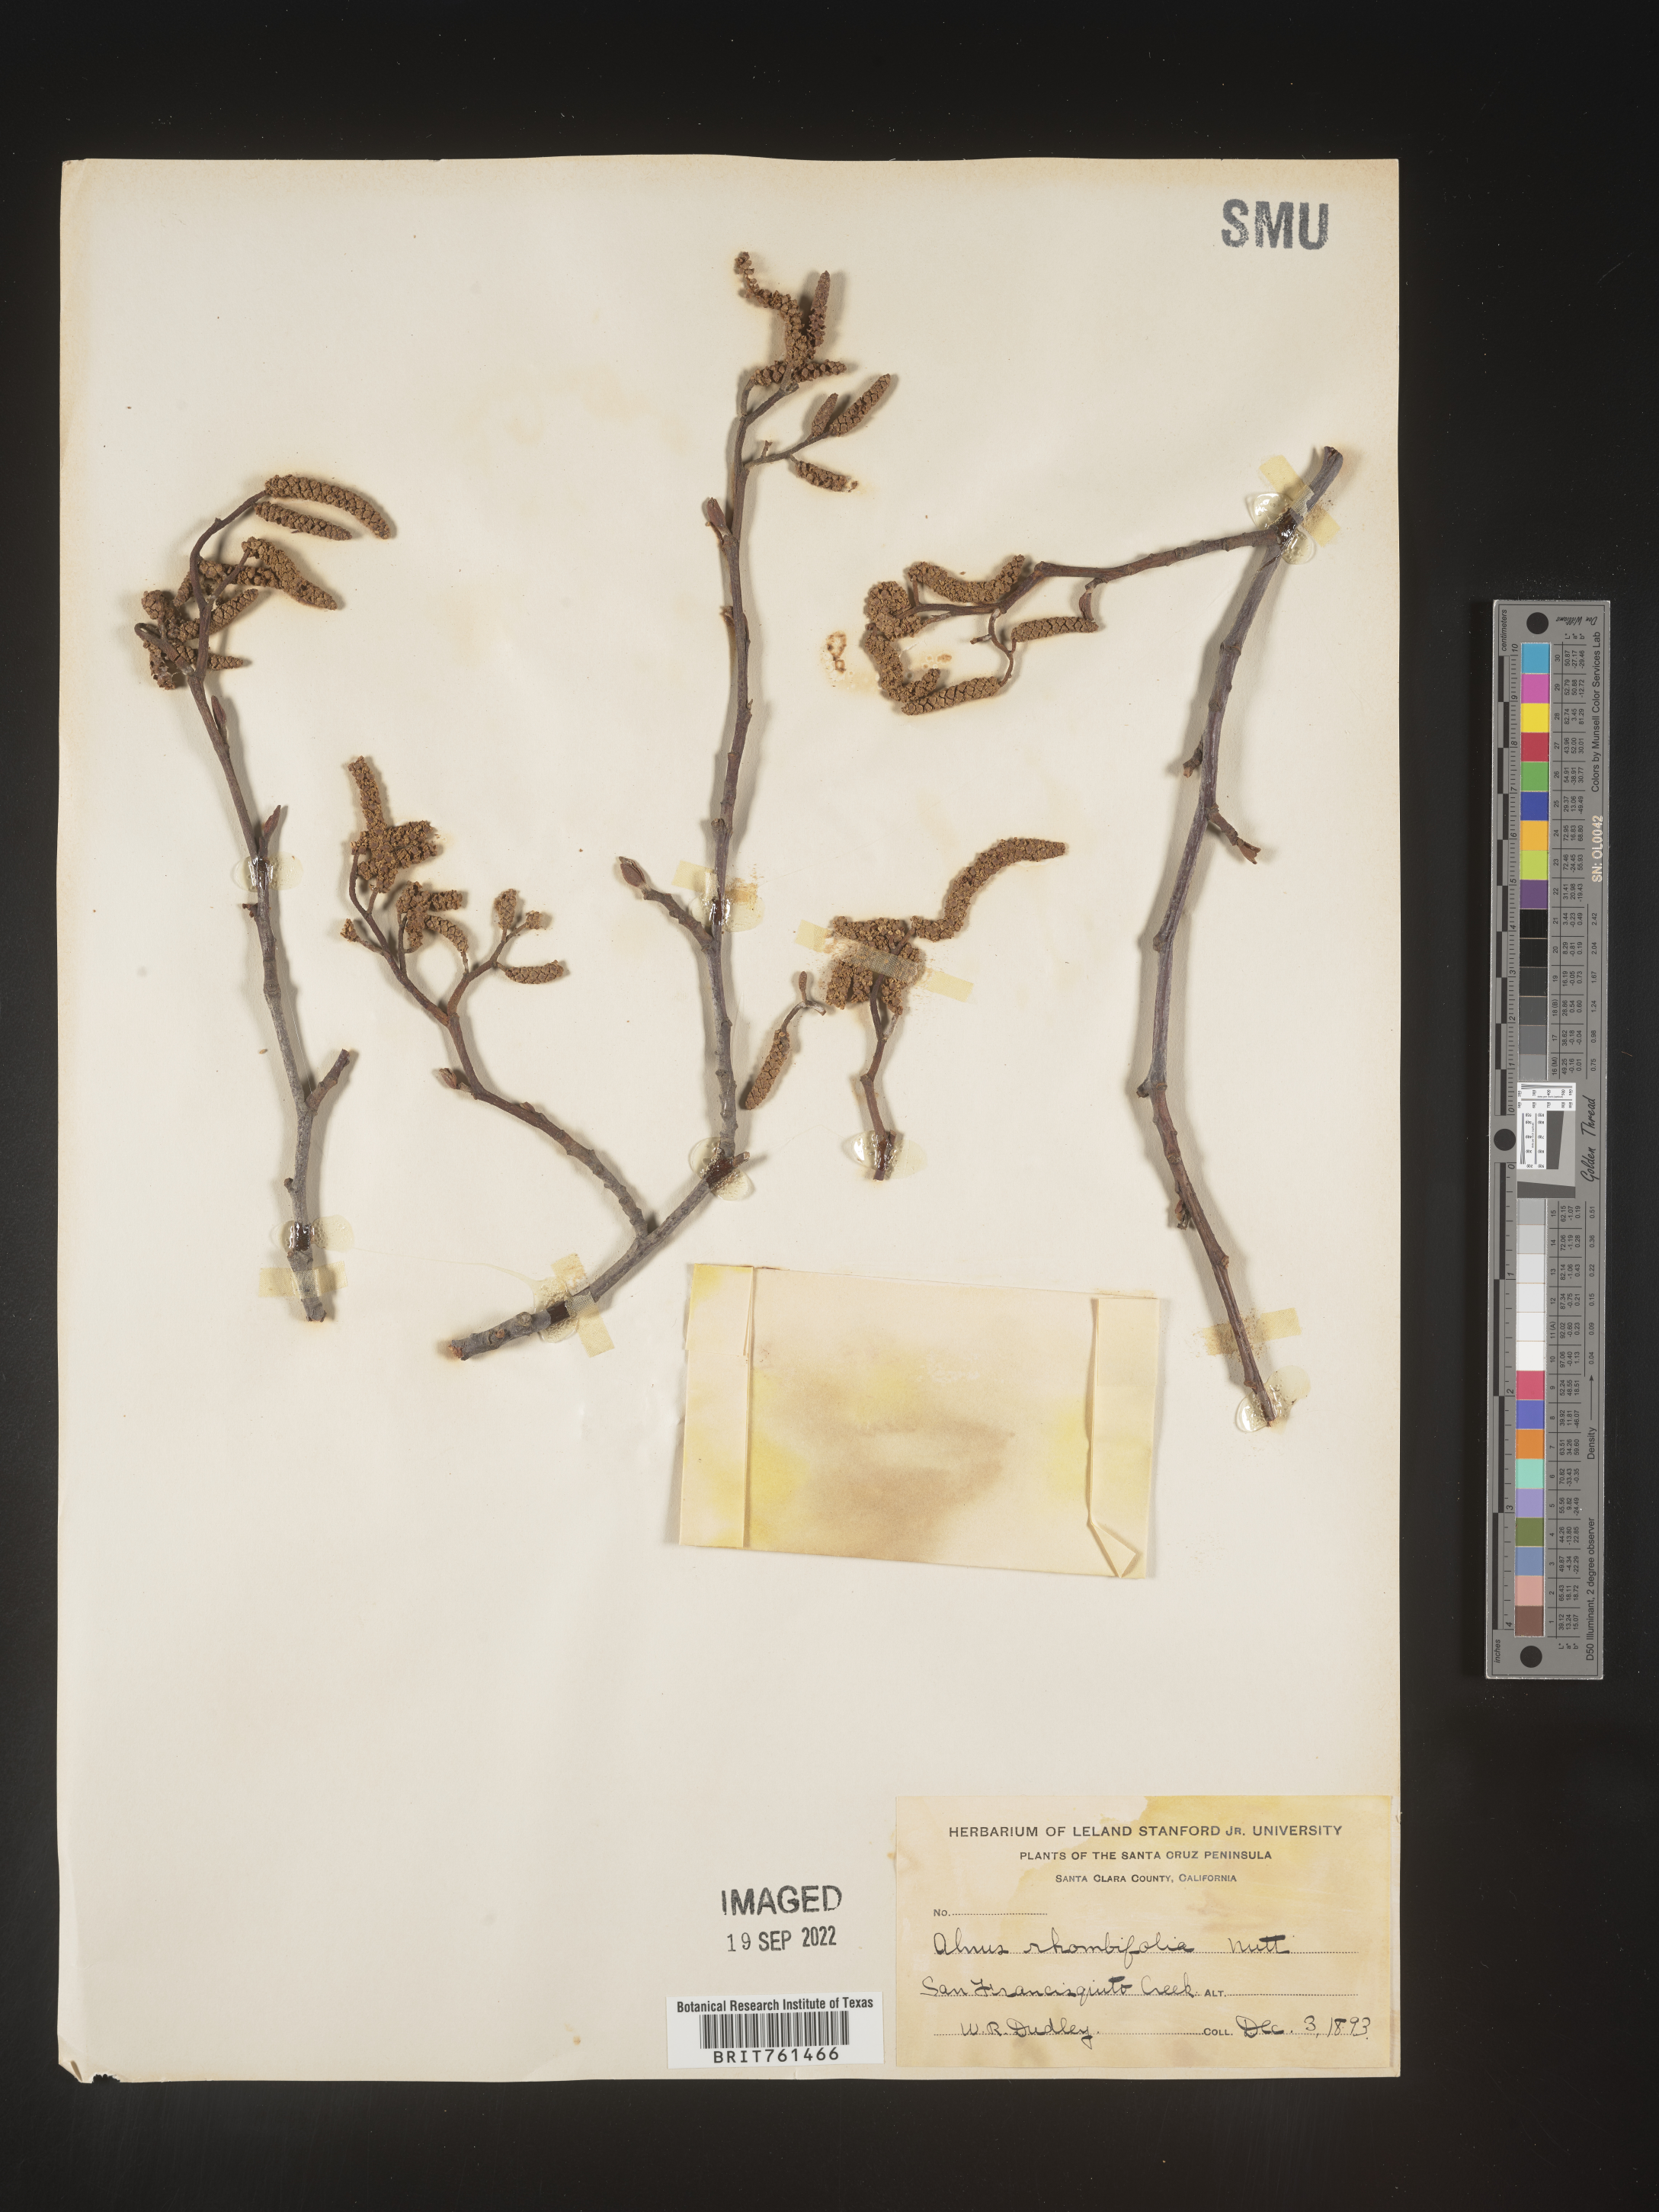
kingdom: Plantae
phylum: Tracheophyta
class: Magnoliopsida
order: Fagales
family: Betulaceae
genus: Alnus
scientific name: Alnus rhombifolia
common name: California alder
